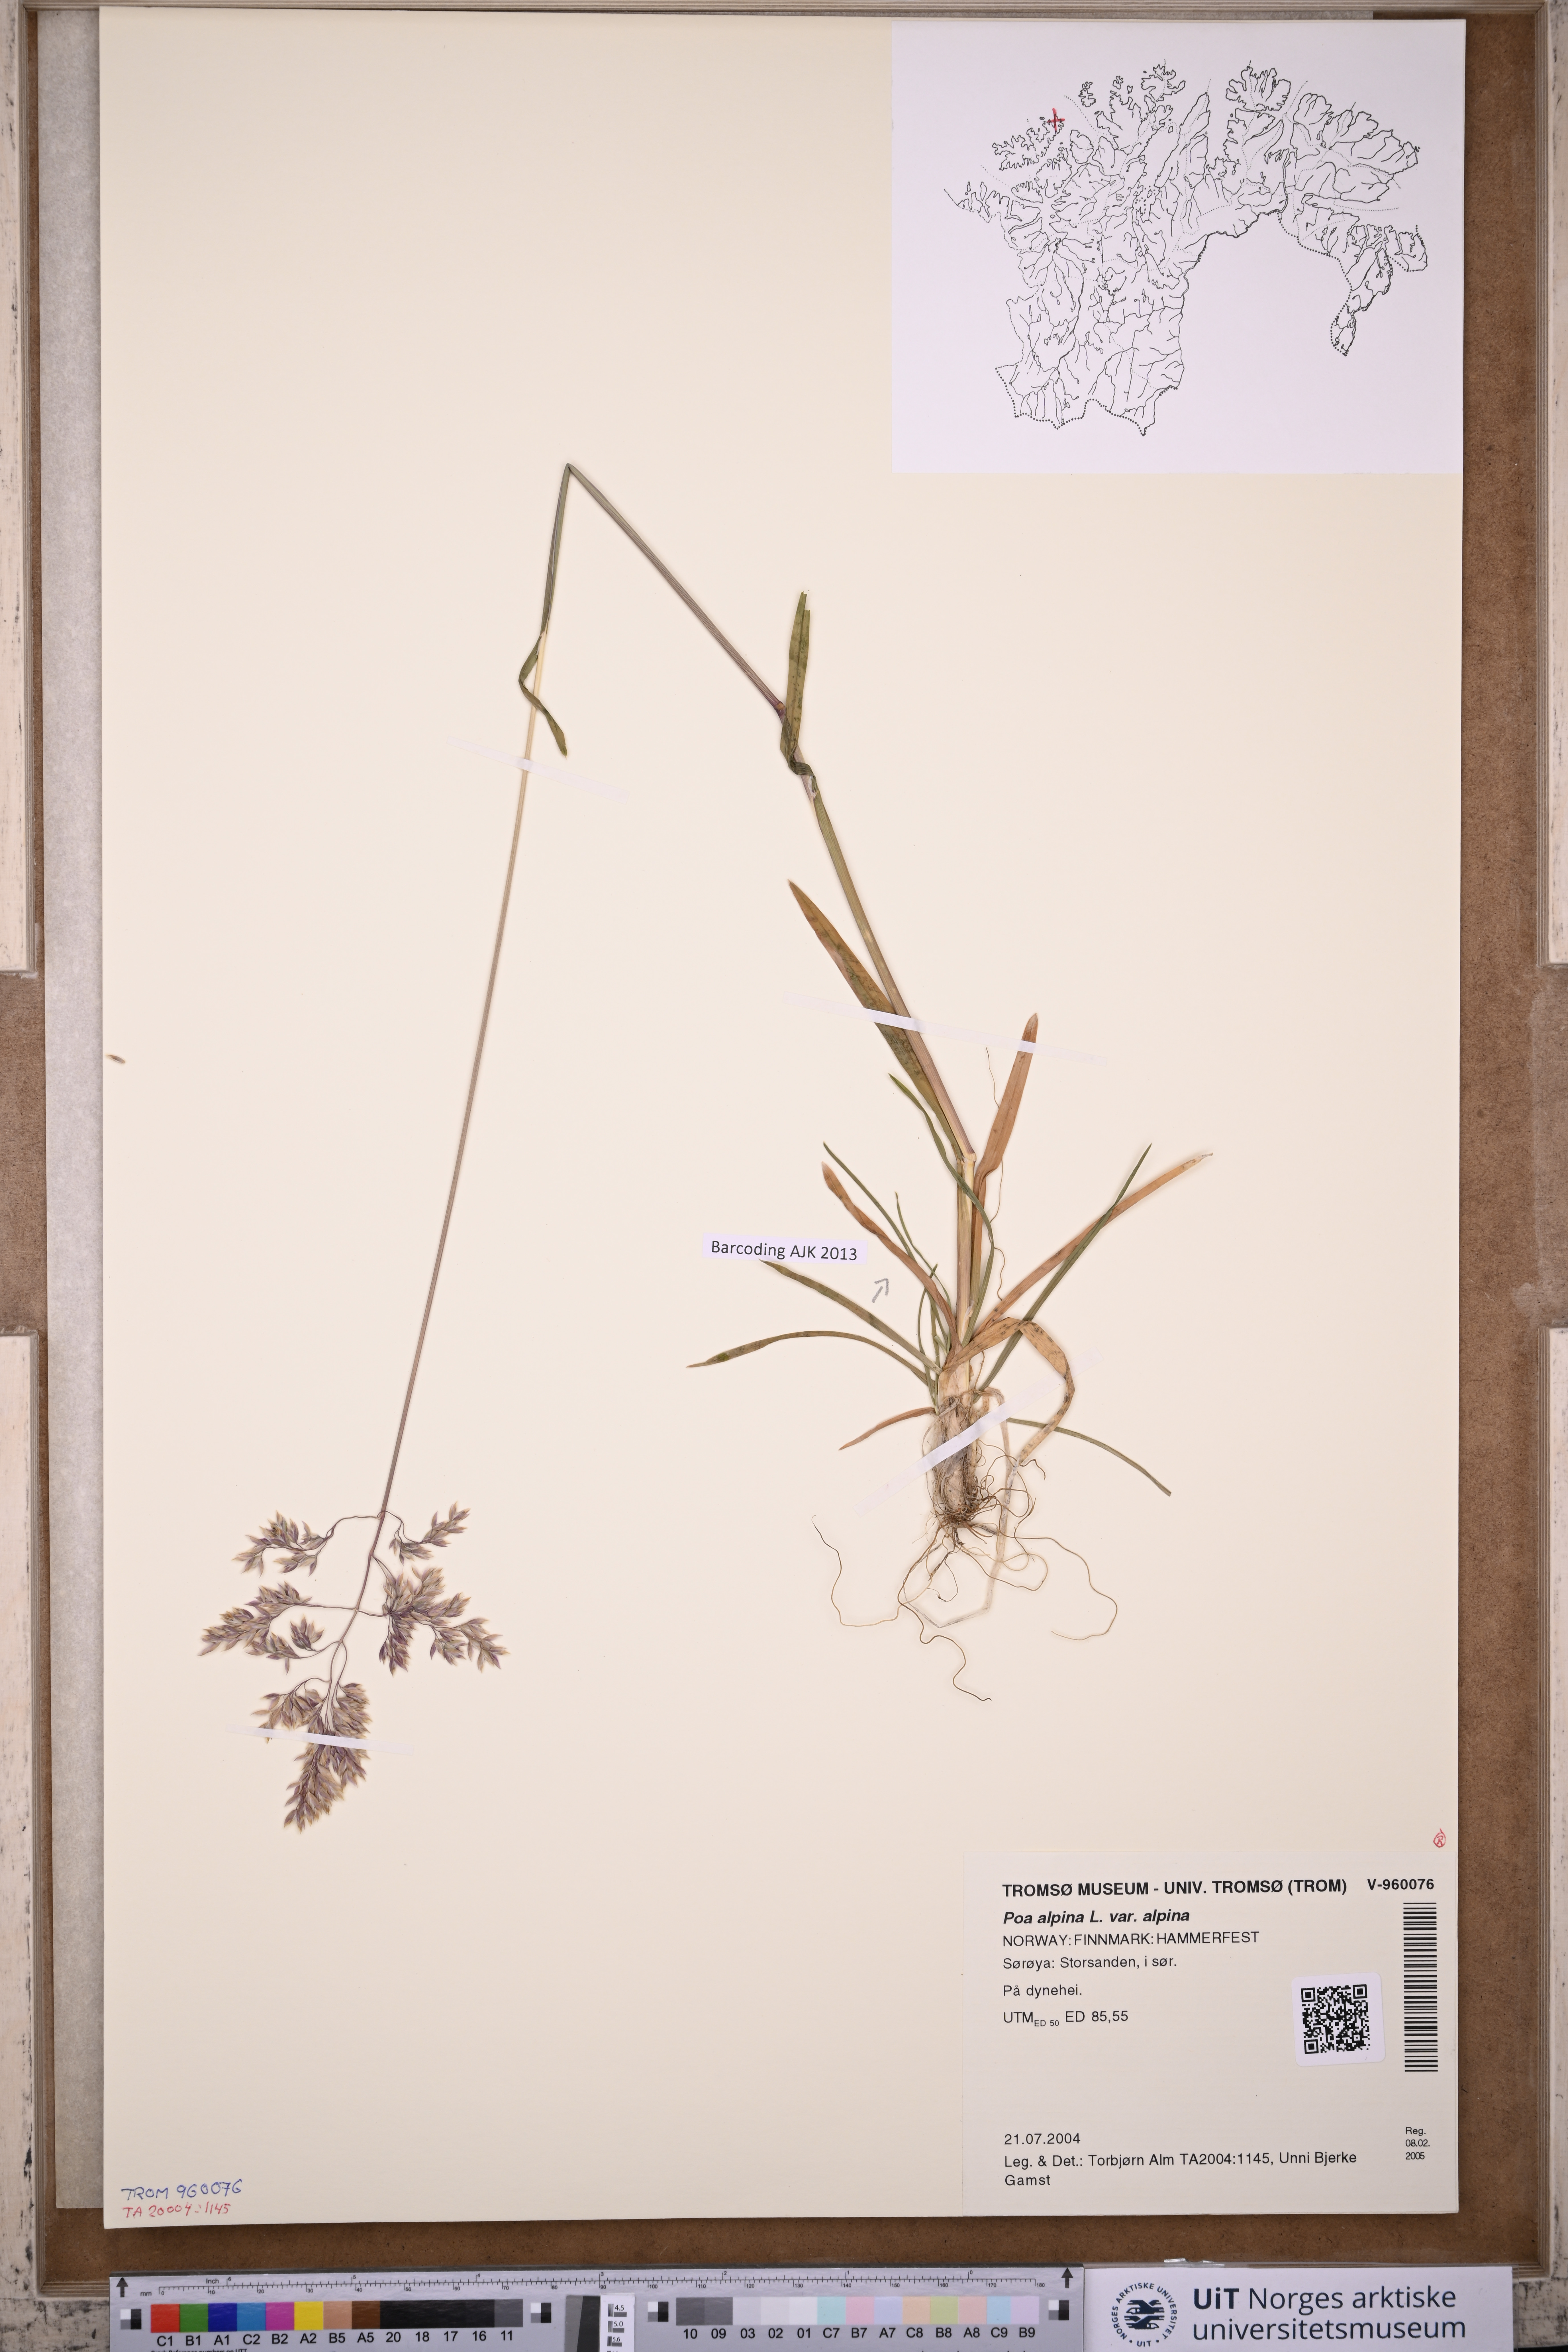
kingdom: Plantae
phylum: Tracheophyta
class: Liliopsida
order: Poales
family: Poaceae
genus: Poa
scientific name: Poa alpina
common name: Alpine bluegrass
